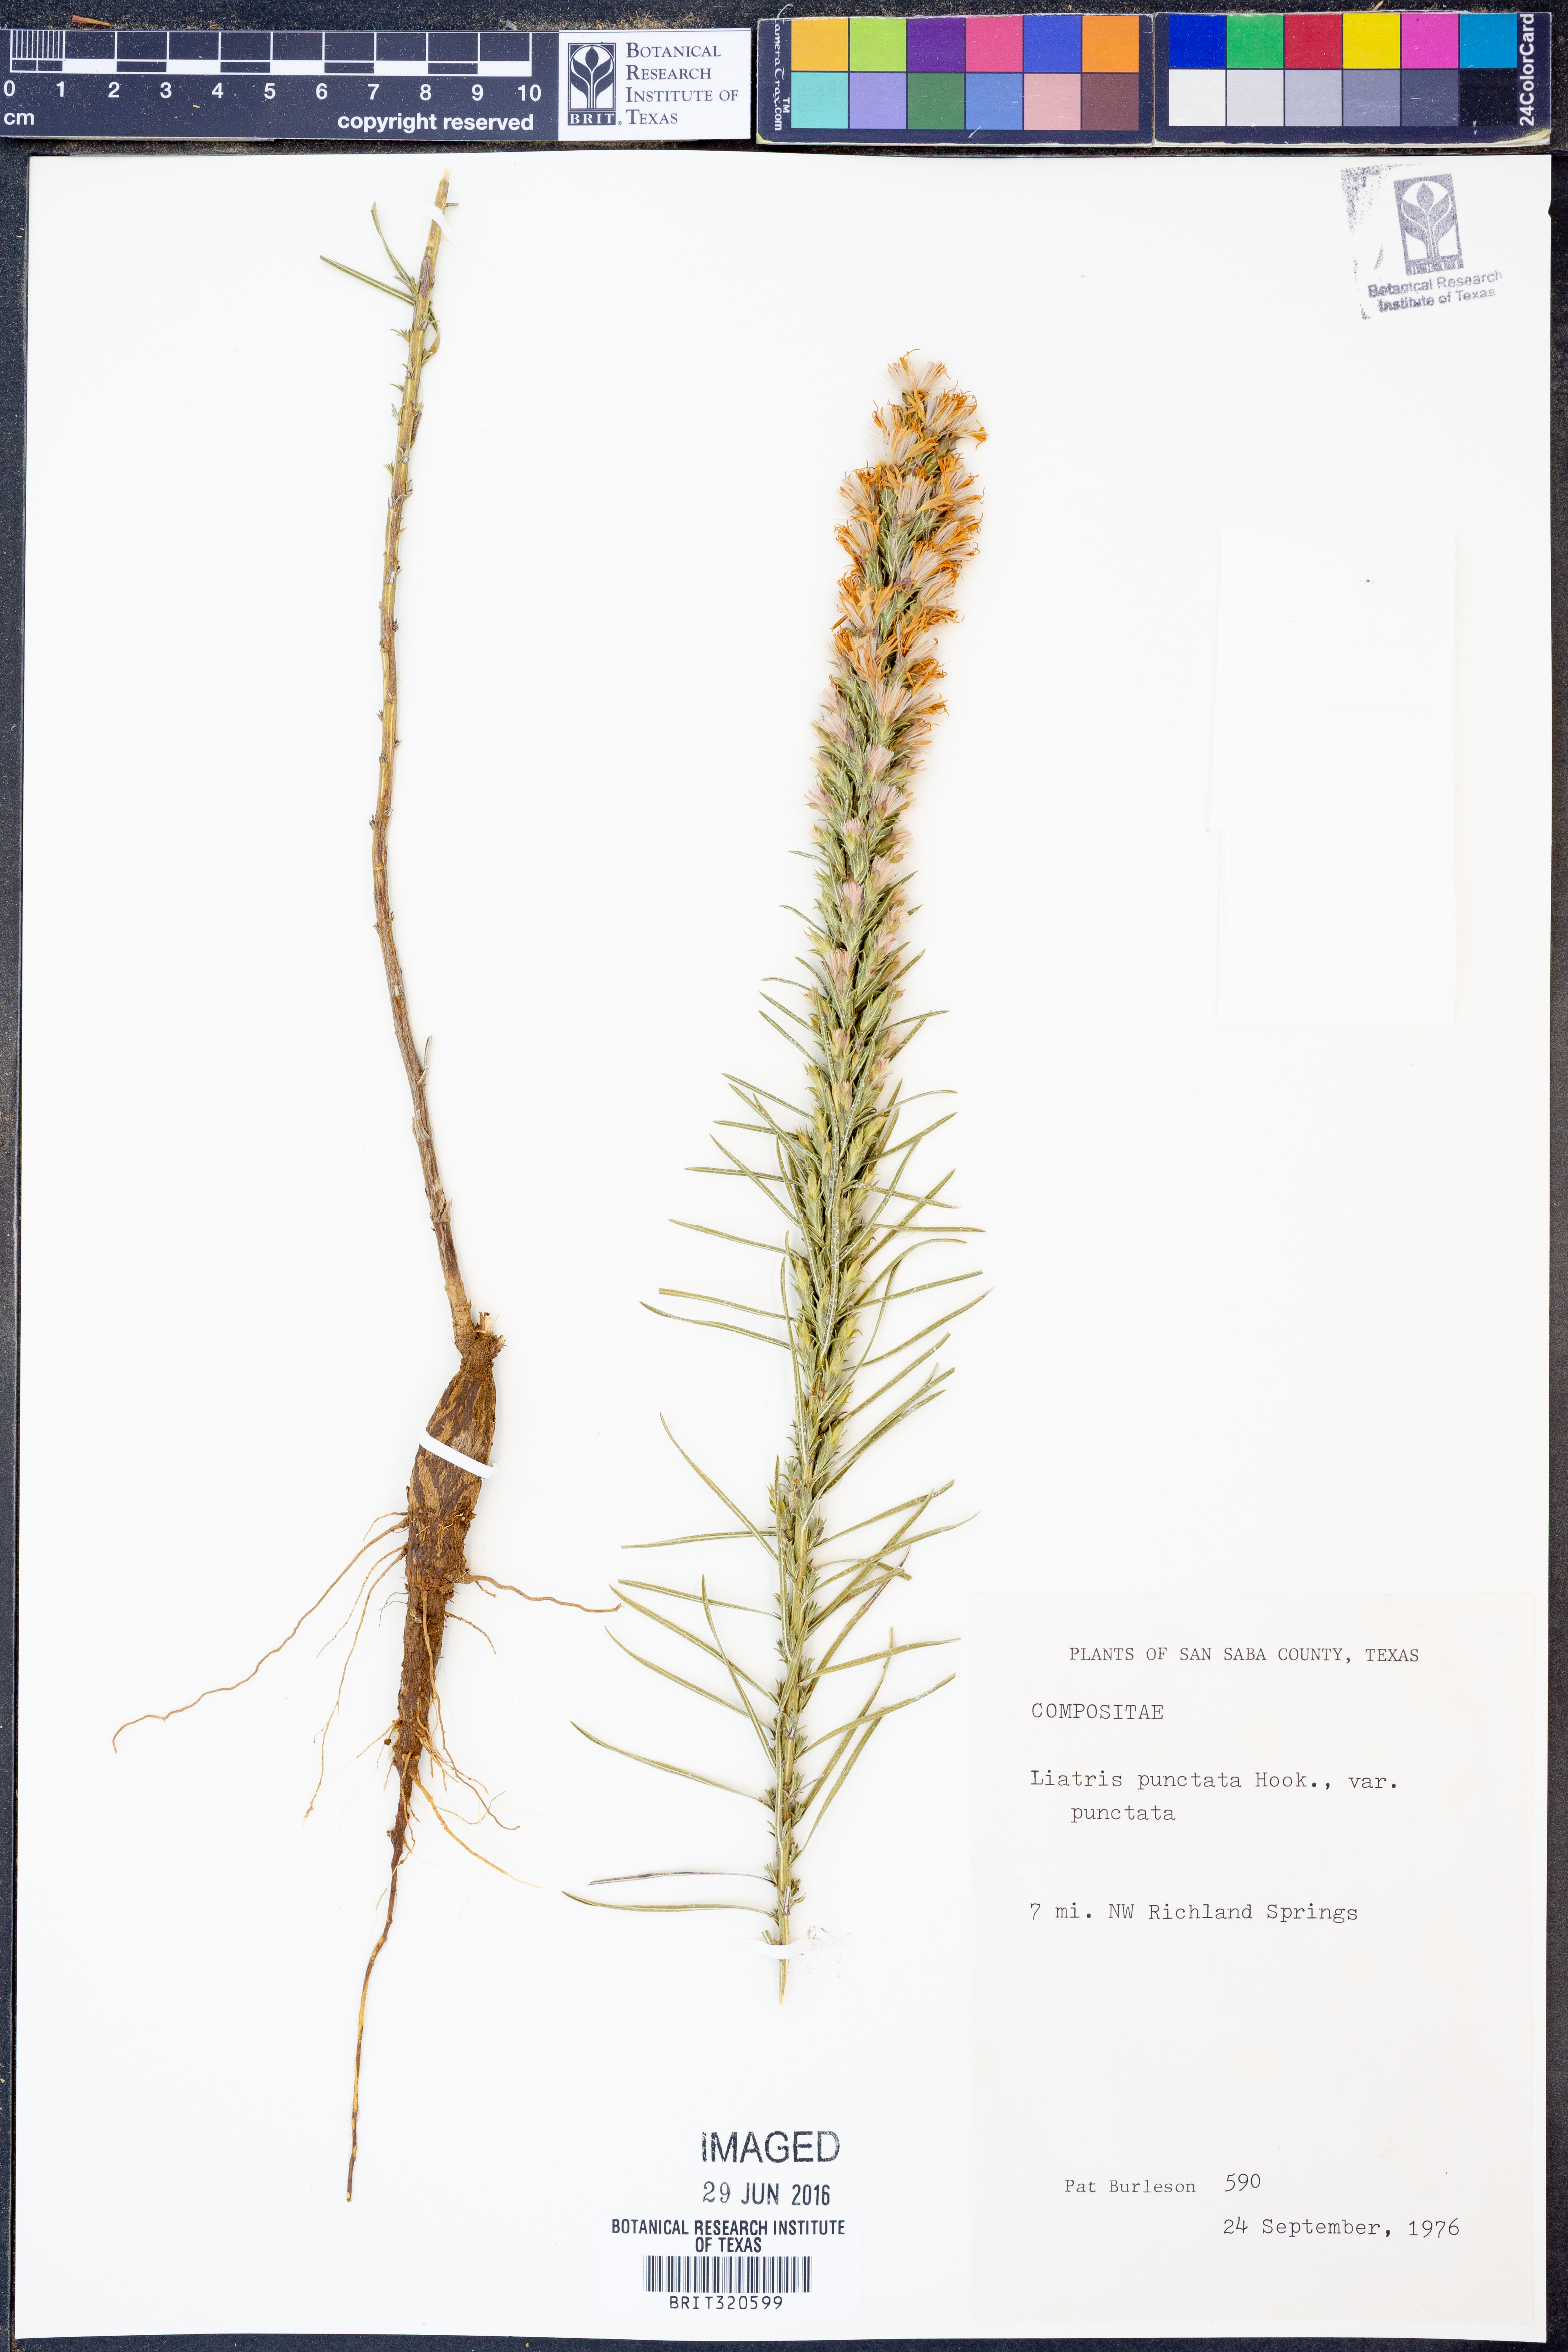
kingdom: Plantae
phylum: Tracheophyta
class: Magnoliopsida
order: Asterales
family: Asteraceae
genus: Liatris
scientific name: Liatris punctata
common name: Dotted gayfeather
